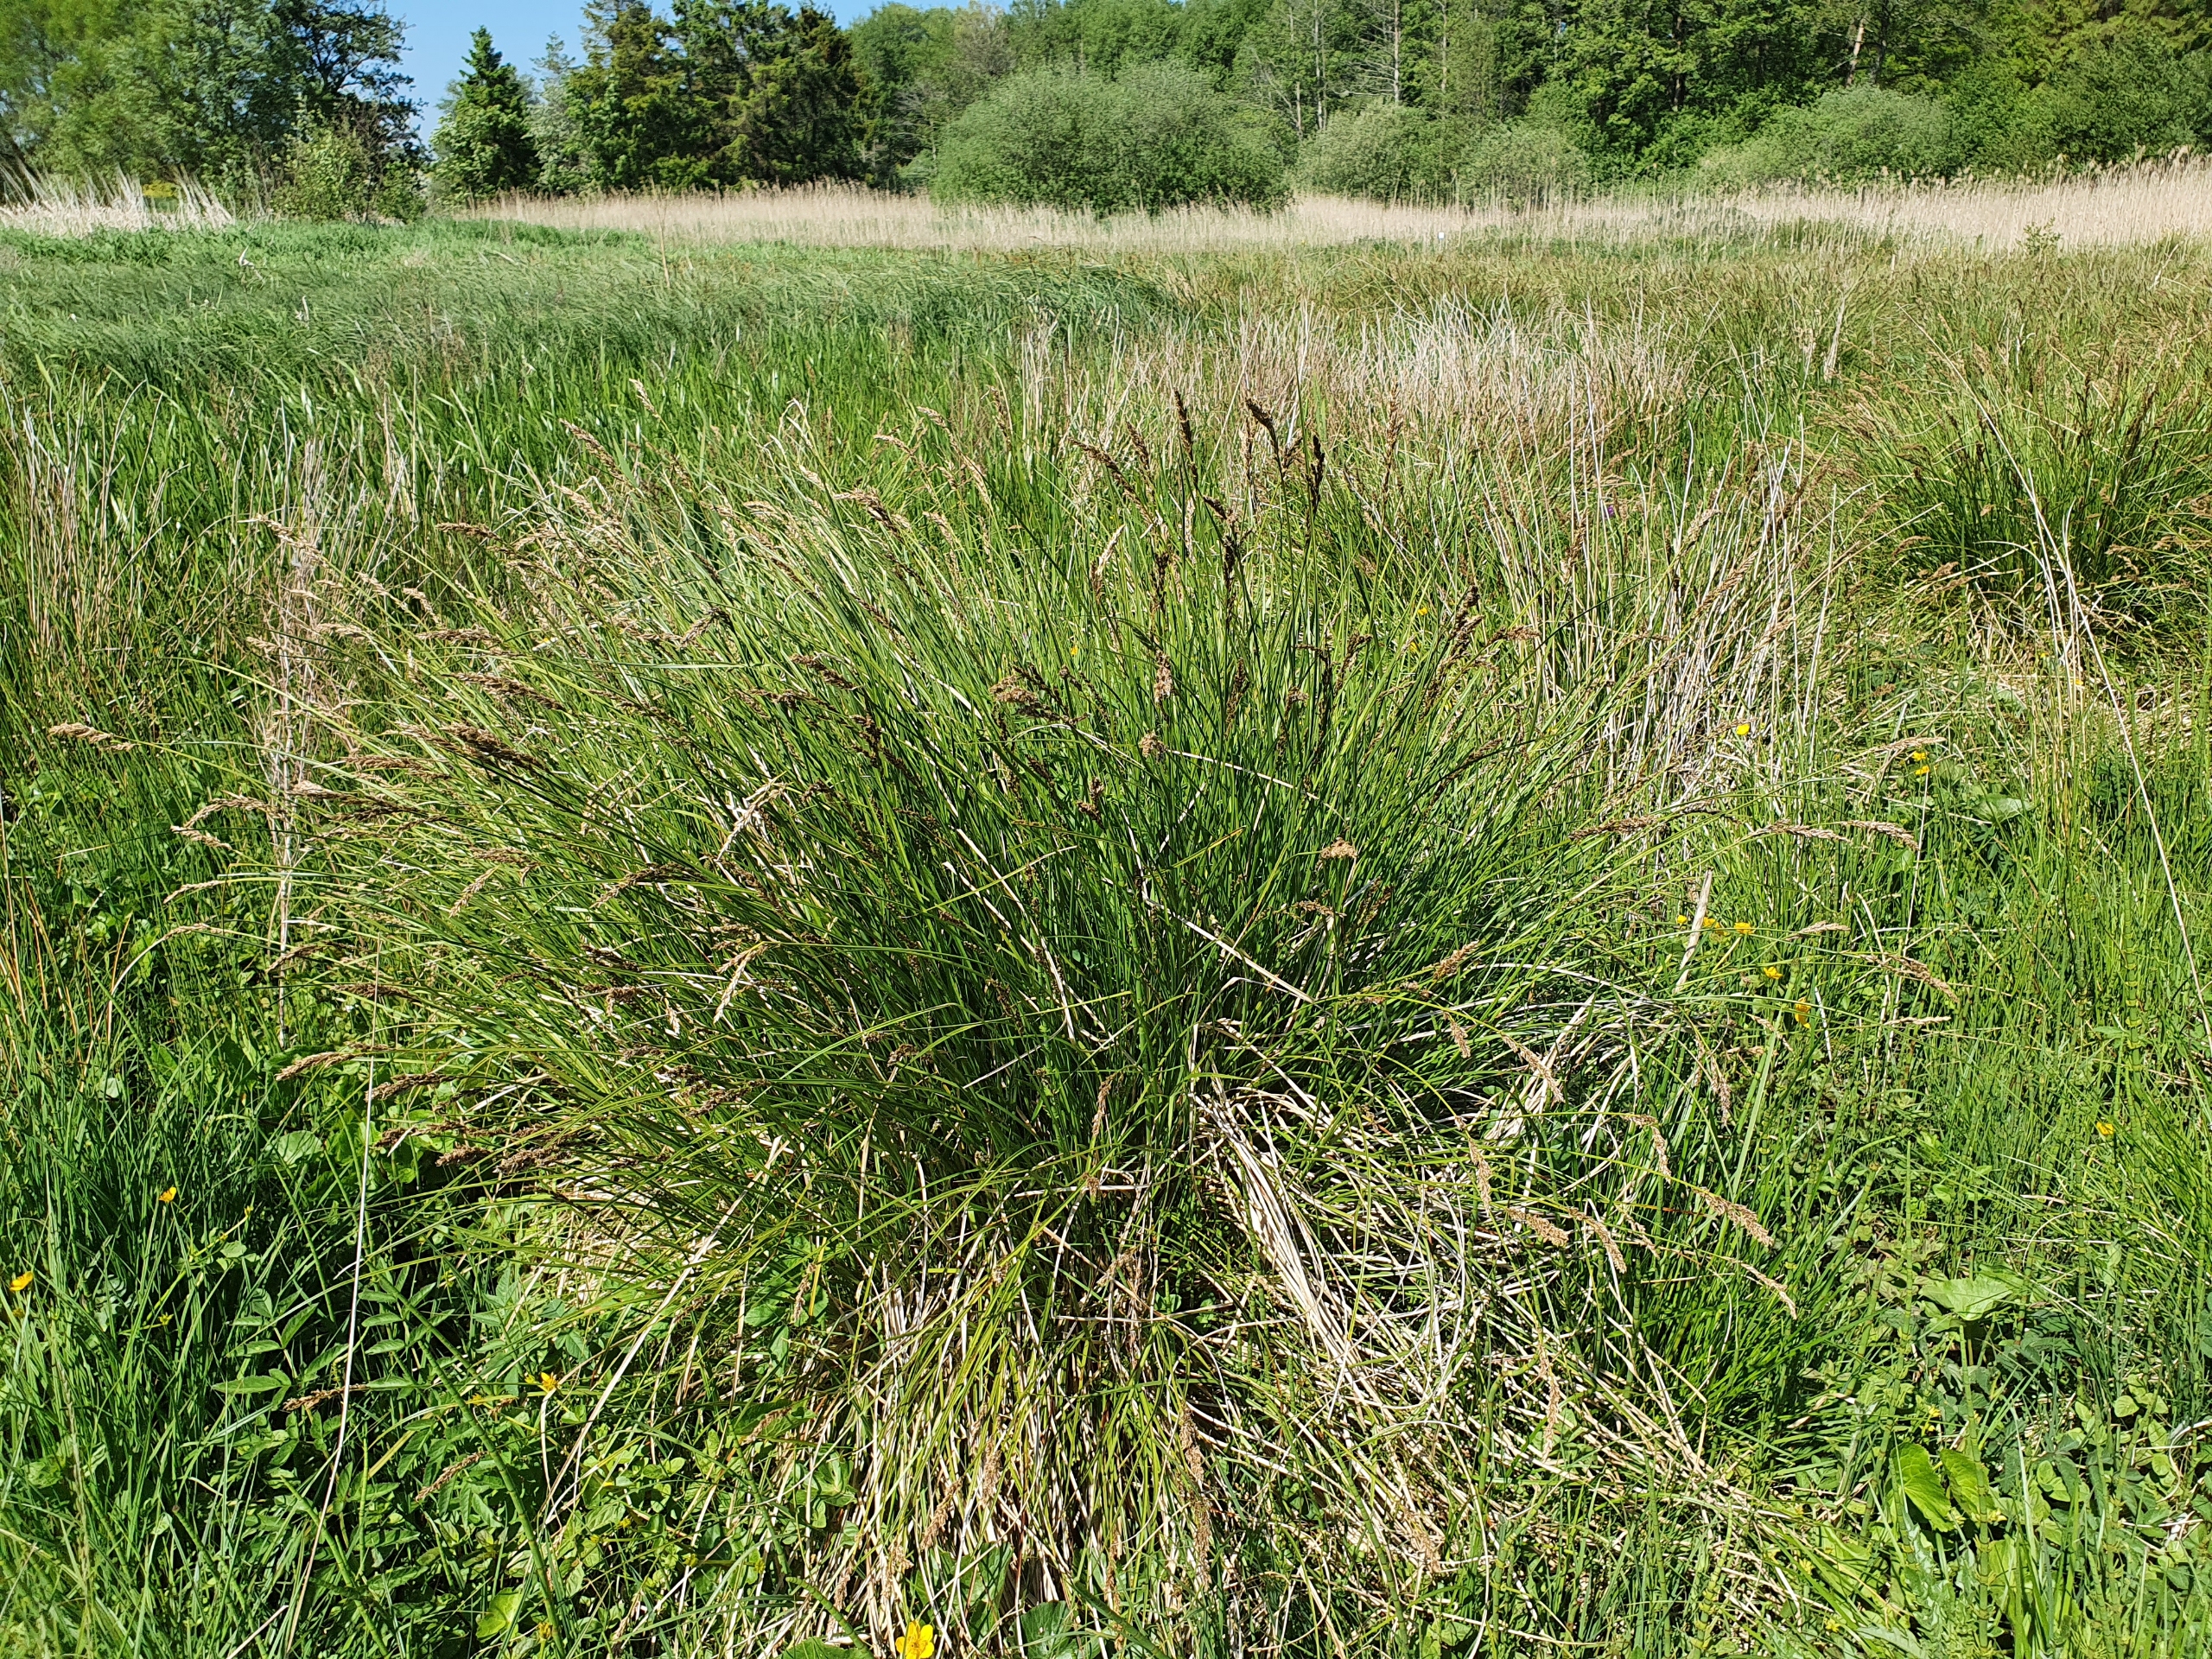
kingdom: Plantae
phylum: Tracheophyta
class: Liliopsida
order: Poales
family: Cyperaceae
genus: Carex
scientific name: Carex paniculata
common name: Top-star
